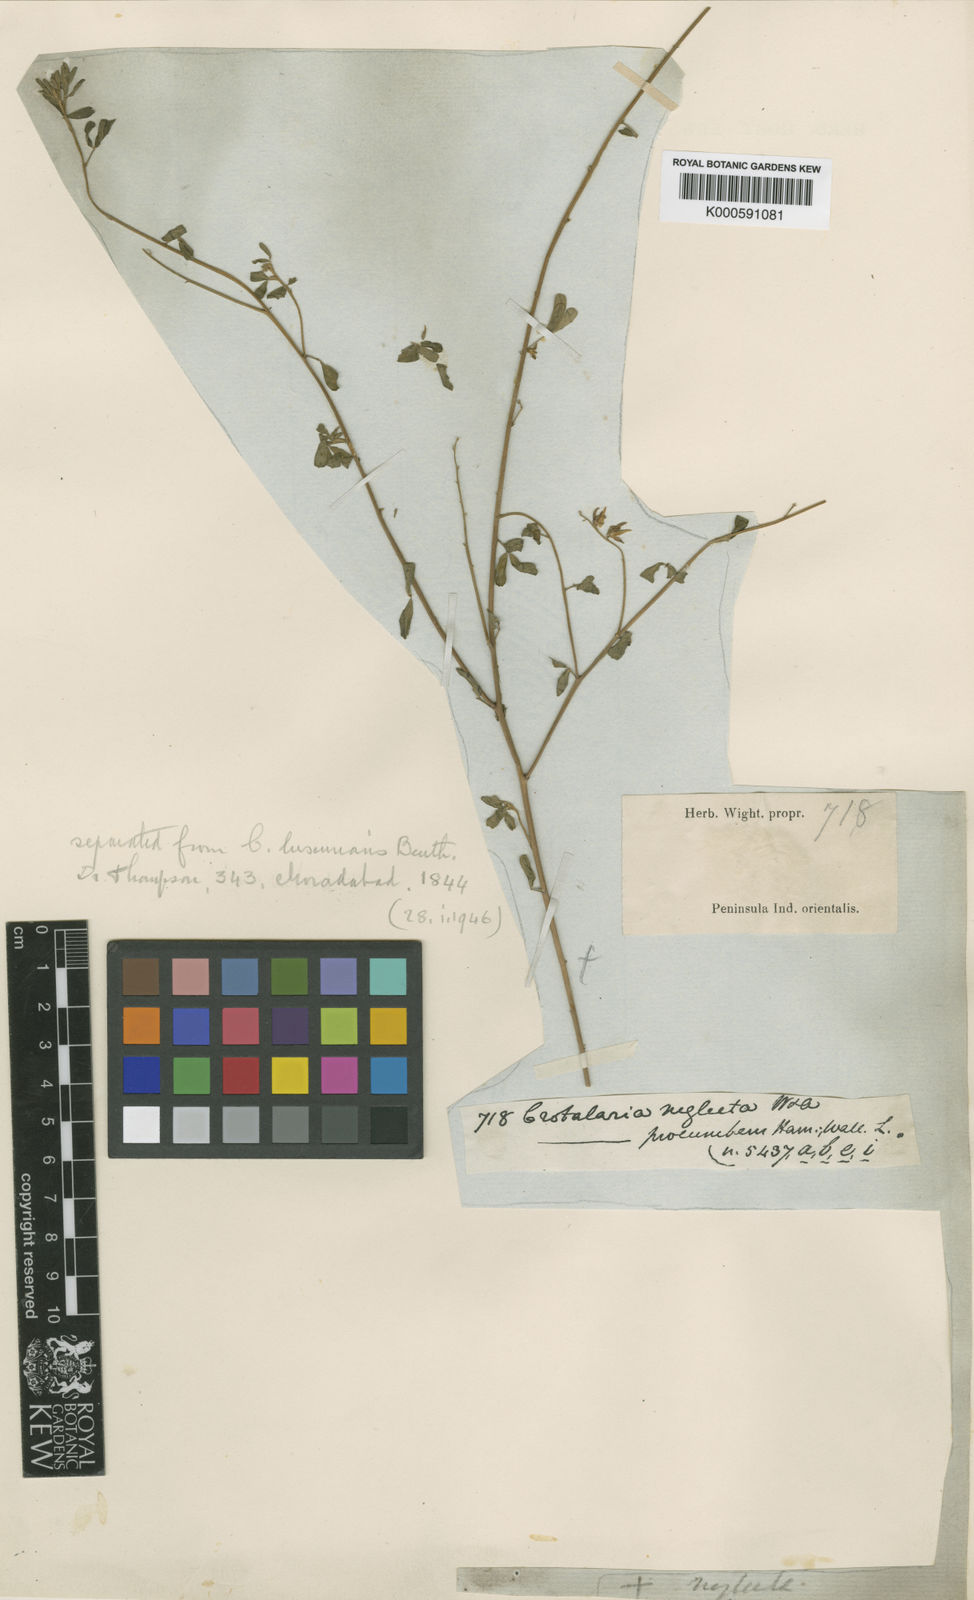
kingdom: Plantae
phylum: Tracheophyta
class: Magnoliopsida
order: Fabales
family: Fabaceae
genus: Crotalaria
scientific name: Crotalaria medicaginea
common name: Trefoil rattlepod
